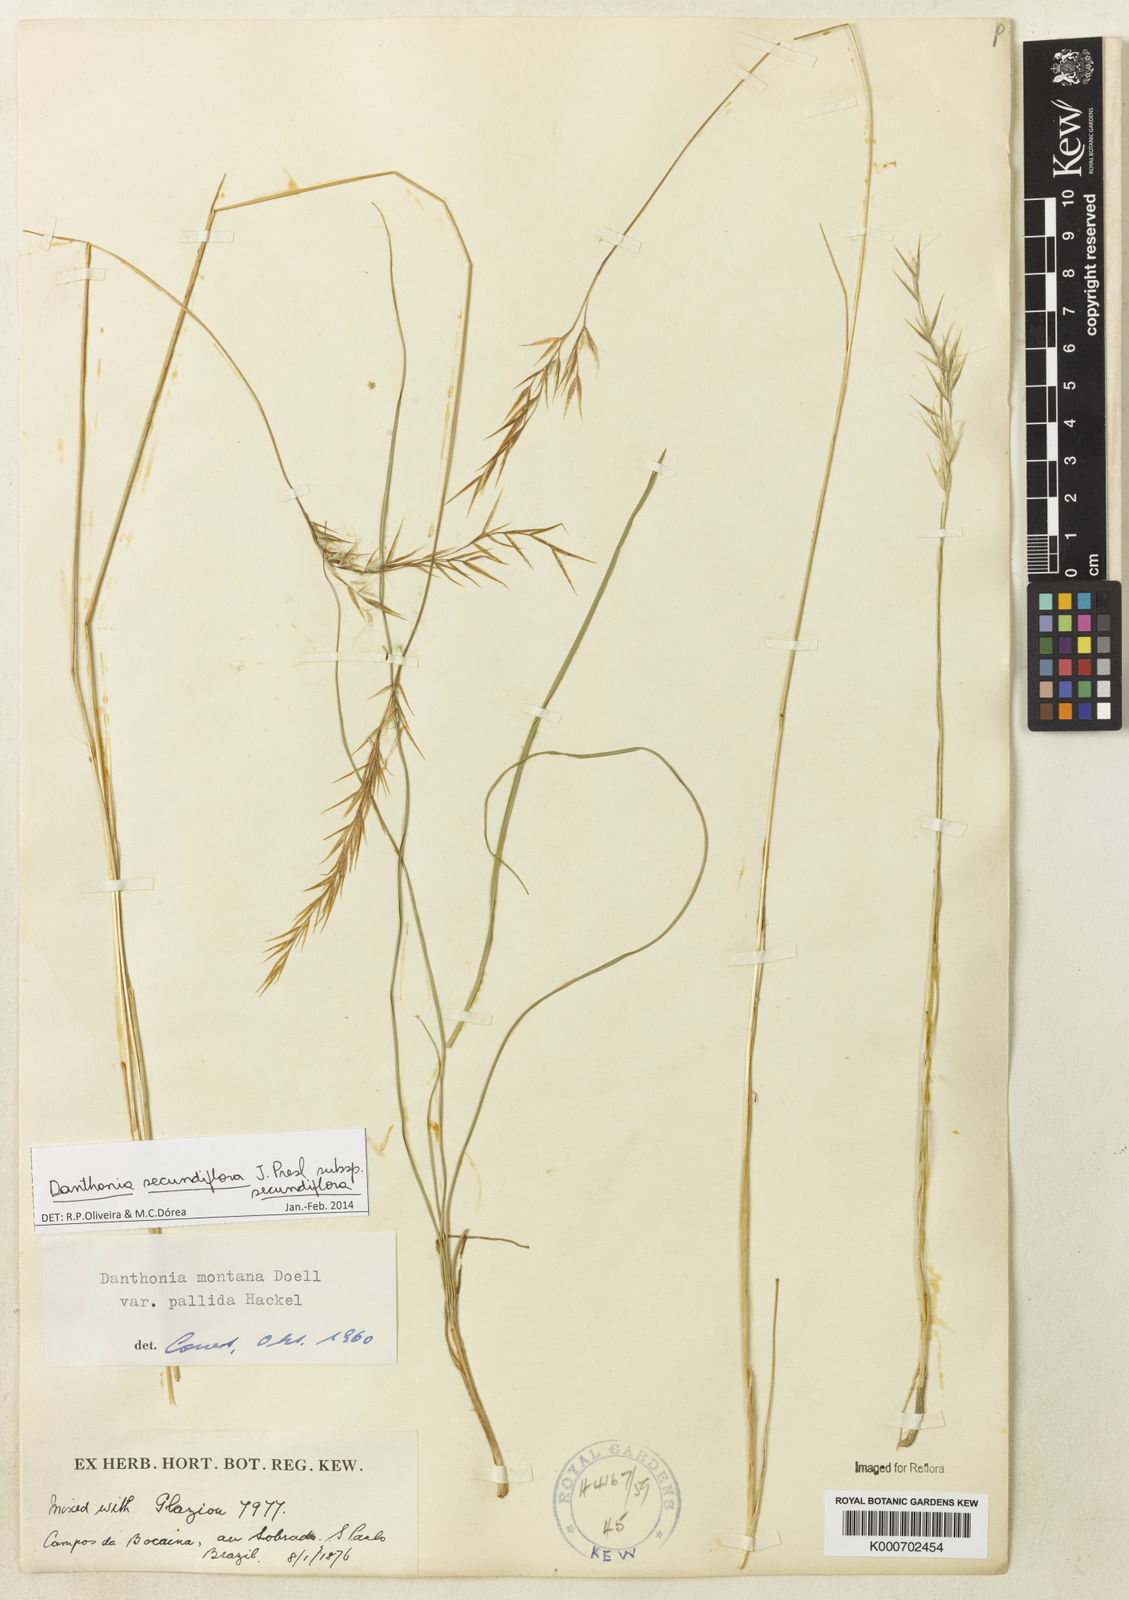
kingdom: Plantae
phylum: Tracheophyta
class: Liliopsida
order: Poales
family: Poaceae
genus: Danthonia
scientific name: Danthonia secundiflora
